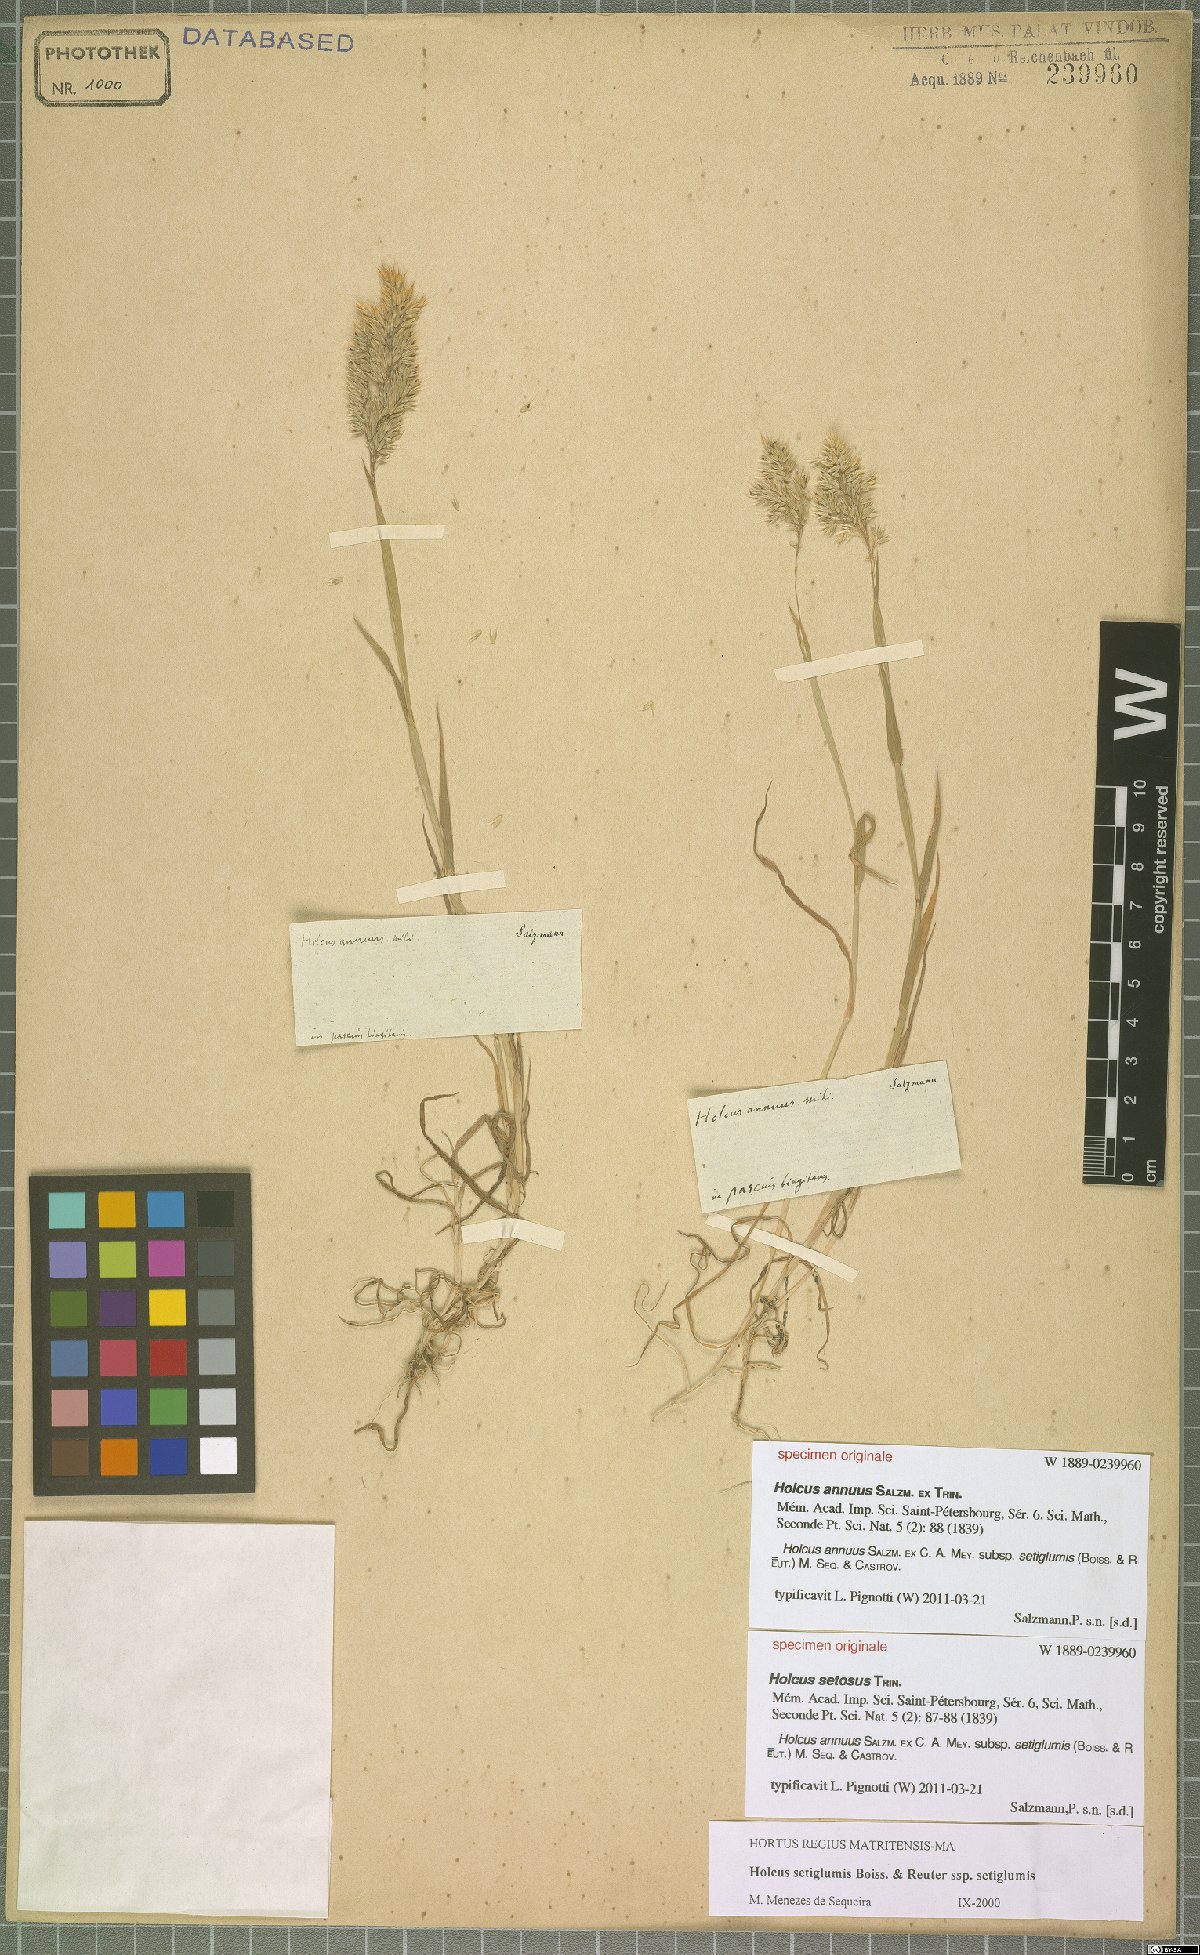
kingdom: Plantae
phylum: Tracheophyta
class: Liliopsida
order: Poales
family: Poaceae
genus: Holcus
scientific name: Holcus annuus
